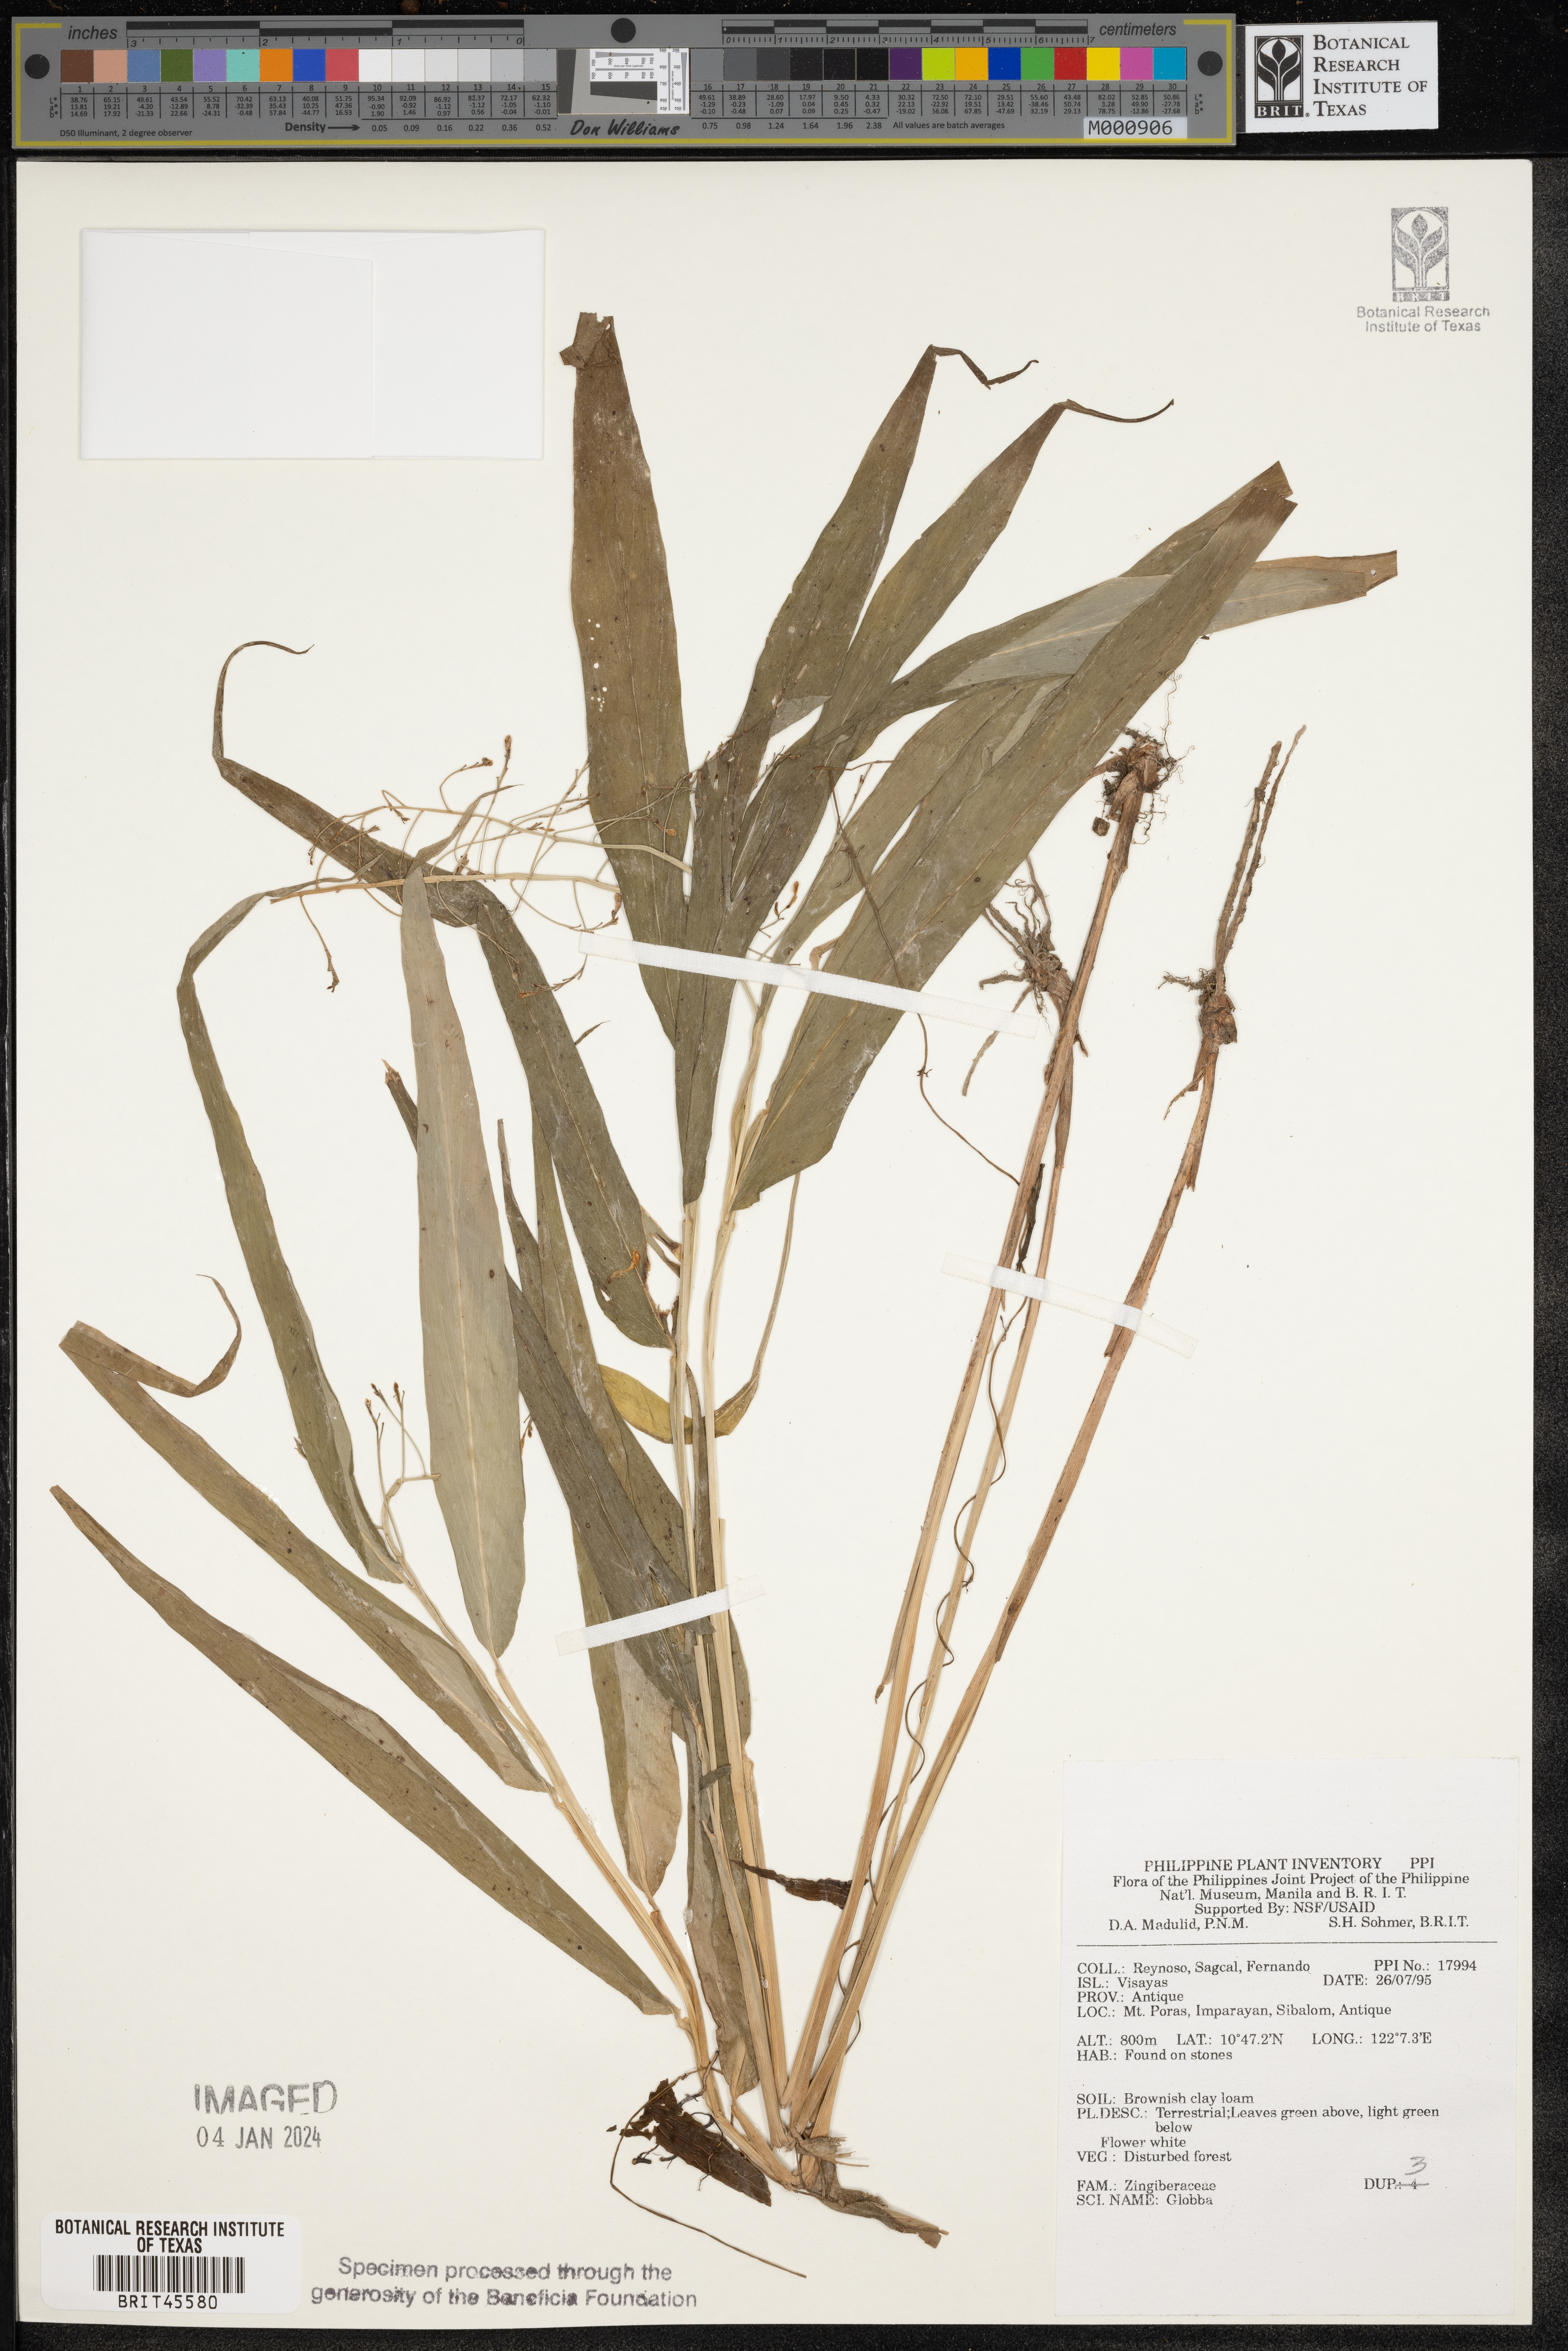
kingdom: Plantae
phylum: Tracheophyta
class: Liliopsida
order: Zingiberales
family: Zingiberaceae
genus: Globba
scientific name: Globba
